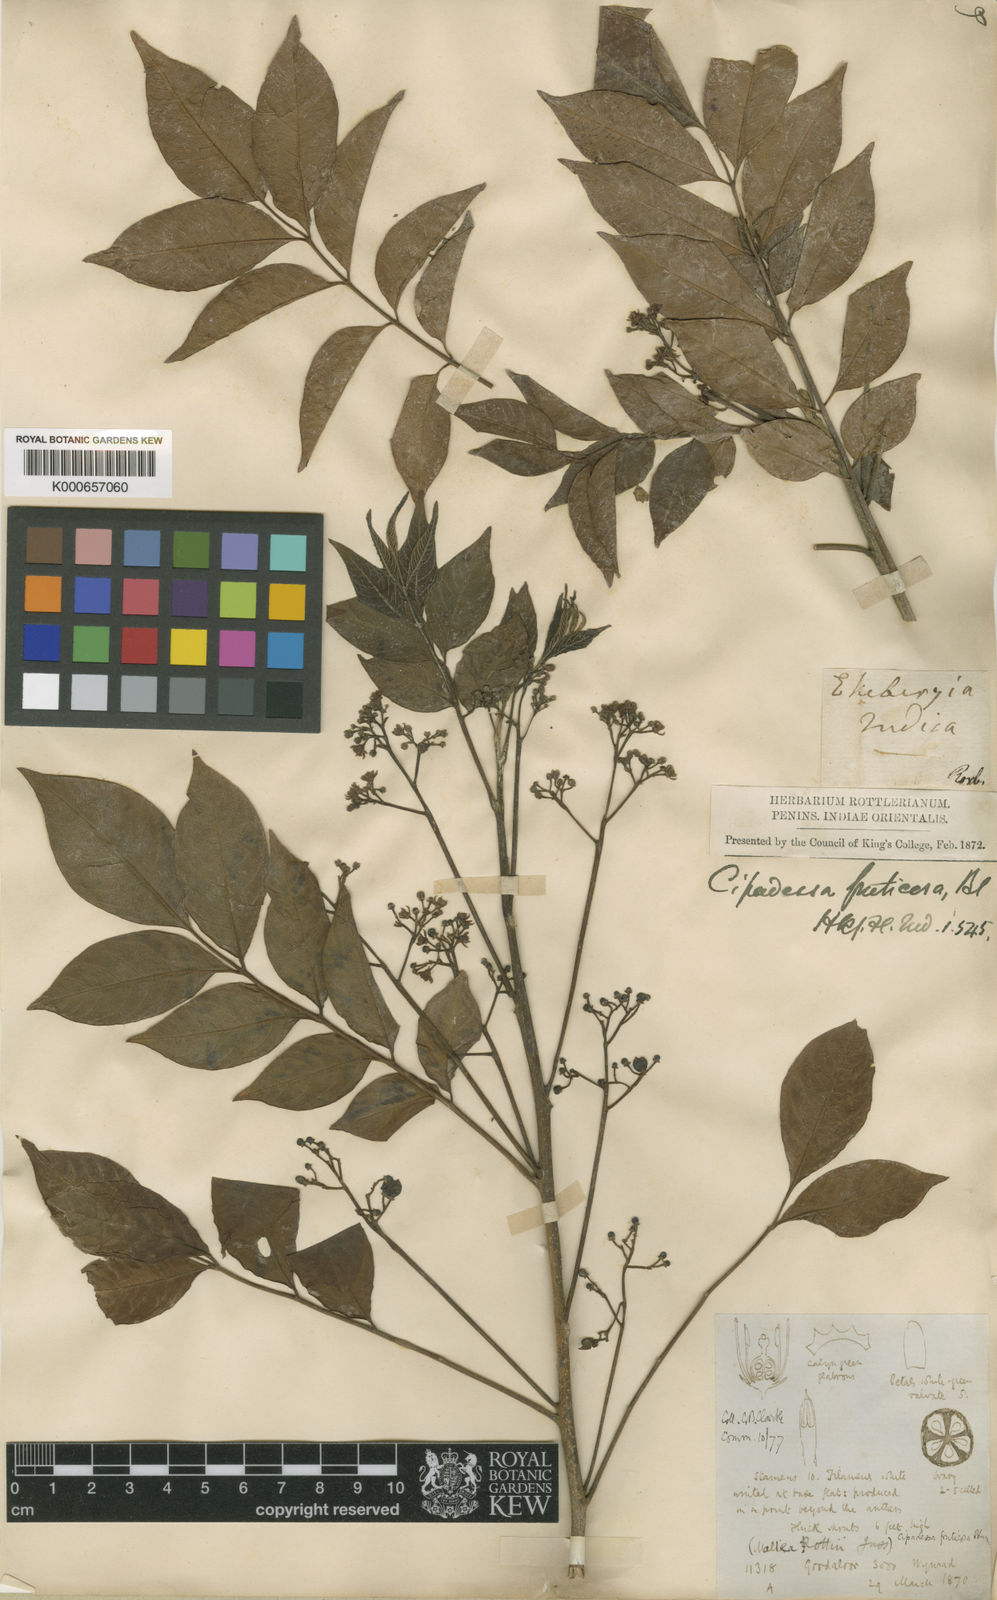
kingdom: Plantae
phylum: Tracheophyta
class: Magnoliopsida
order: Sapindales
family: Meliaceae
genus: Cipadessa
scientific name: Cipadessa baccifera
